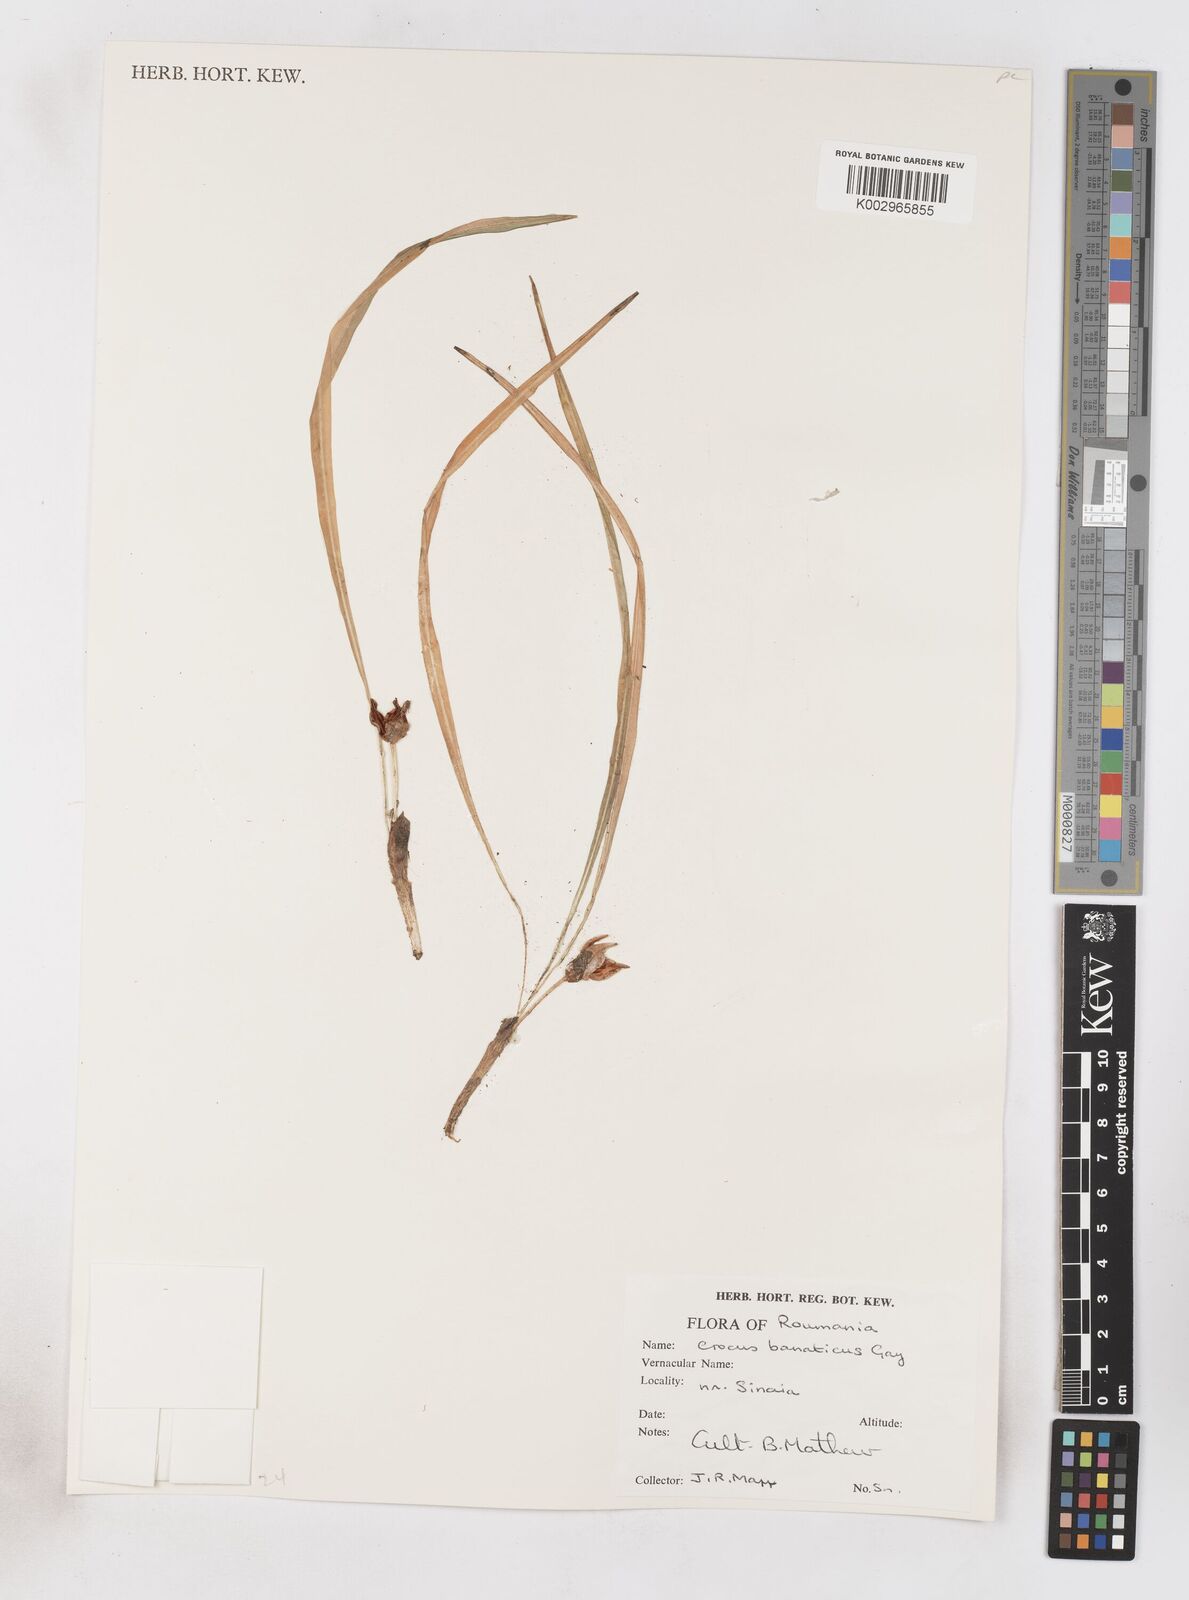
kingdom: Plantae
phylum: Tracheophyta
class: Liliopsida
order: Asparagales
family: Iridaceae
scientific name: Iridaceae
